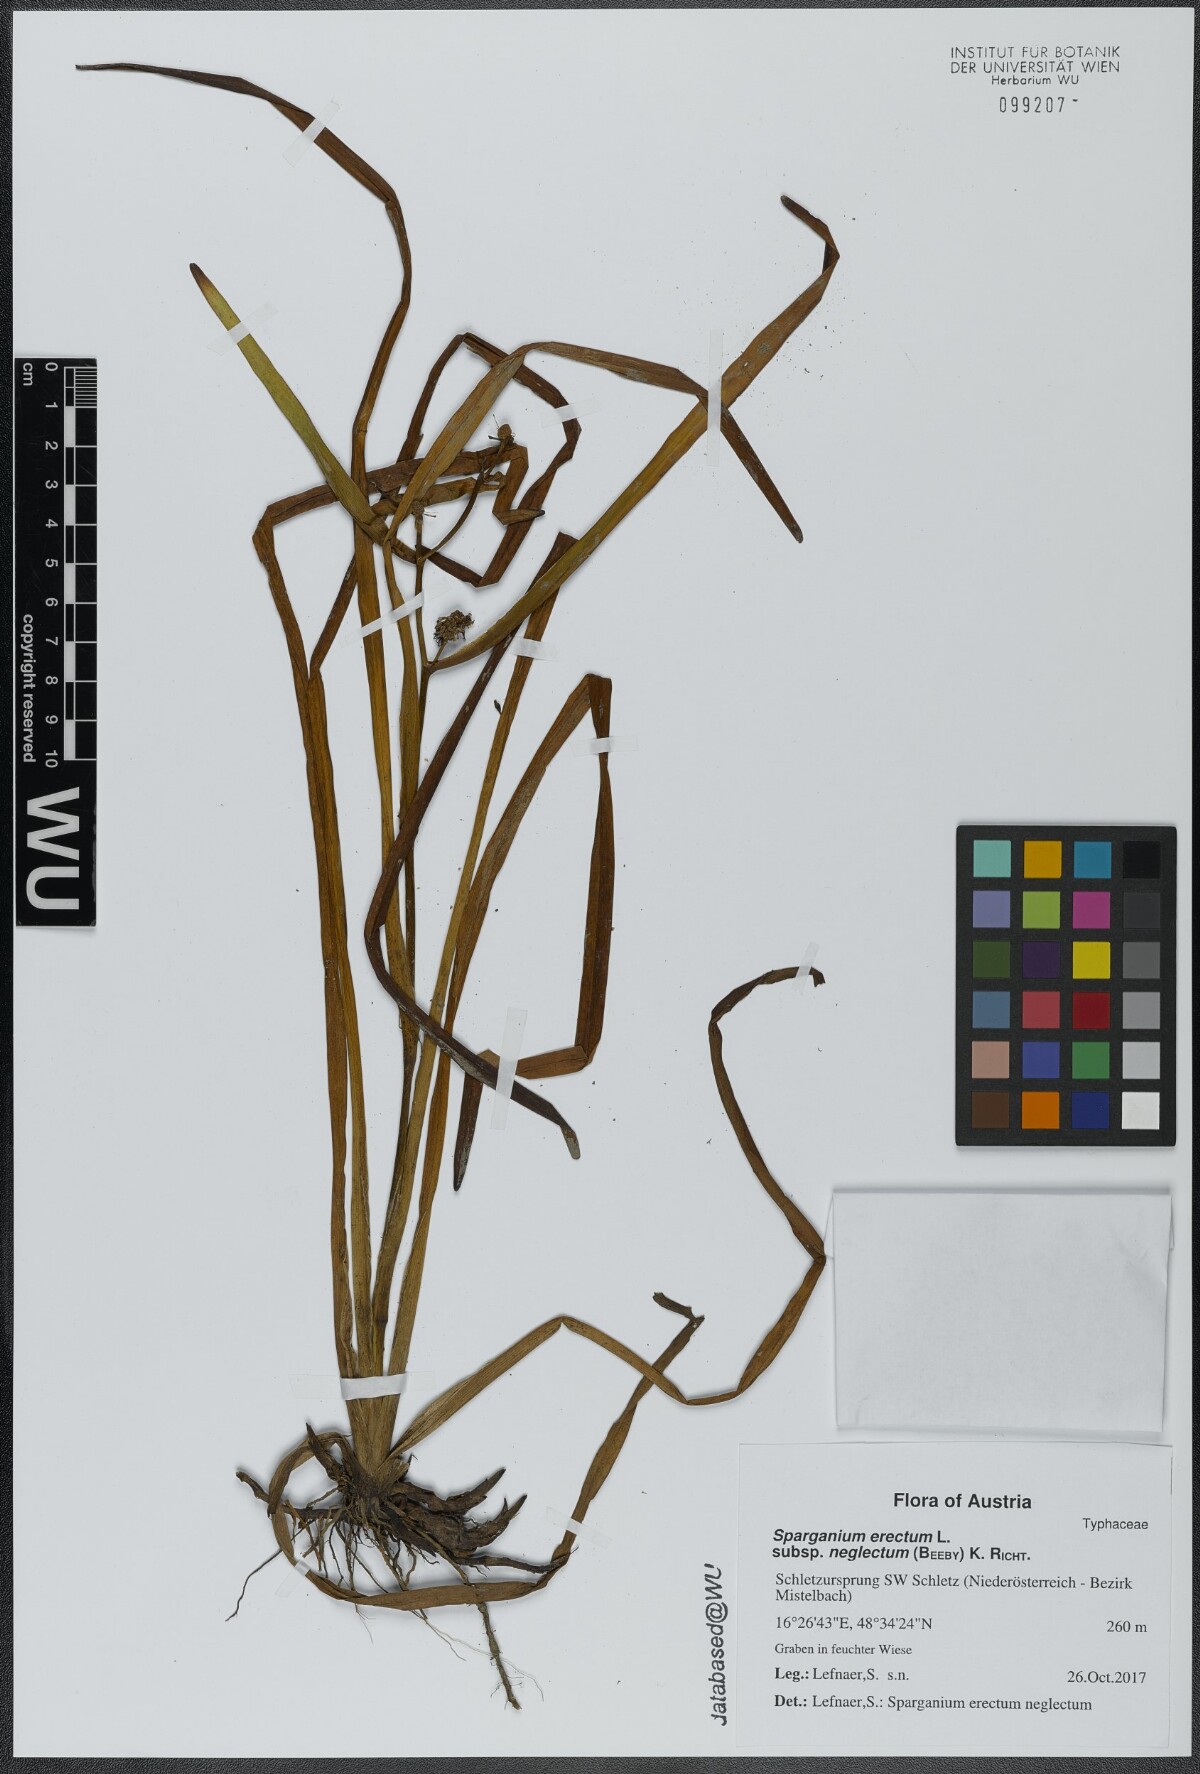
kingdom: Plantae
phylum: Tracheophyta
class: Liliopsida
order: Poales
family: Typhaceae
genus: Sparganium
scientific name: Sparganium erectum
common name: Branched bur-reed
